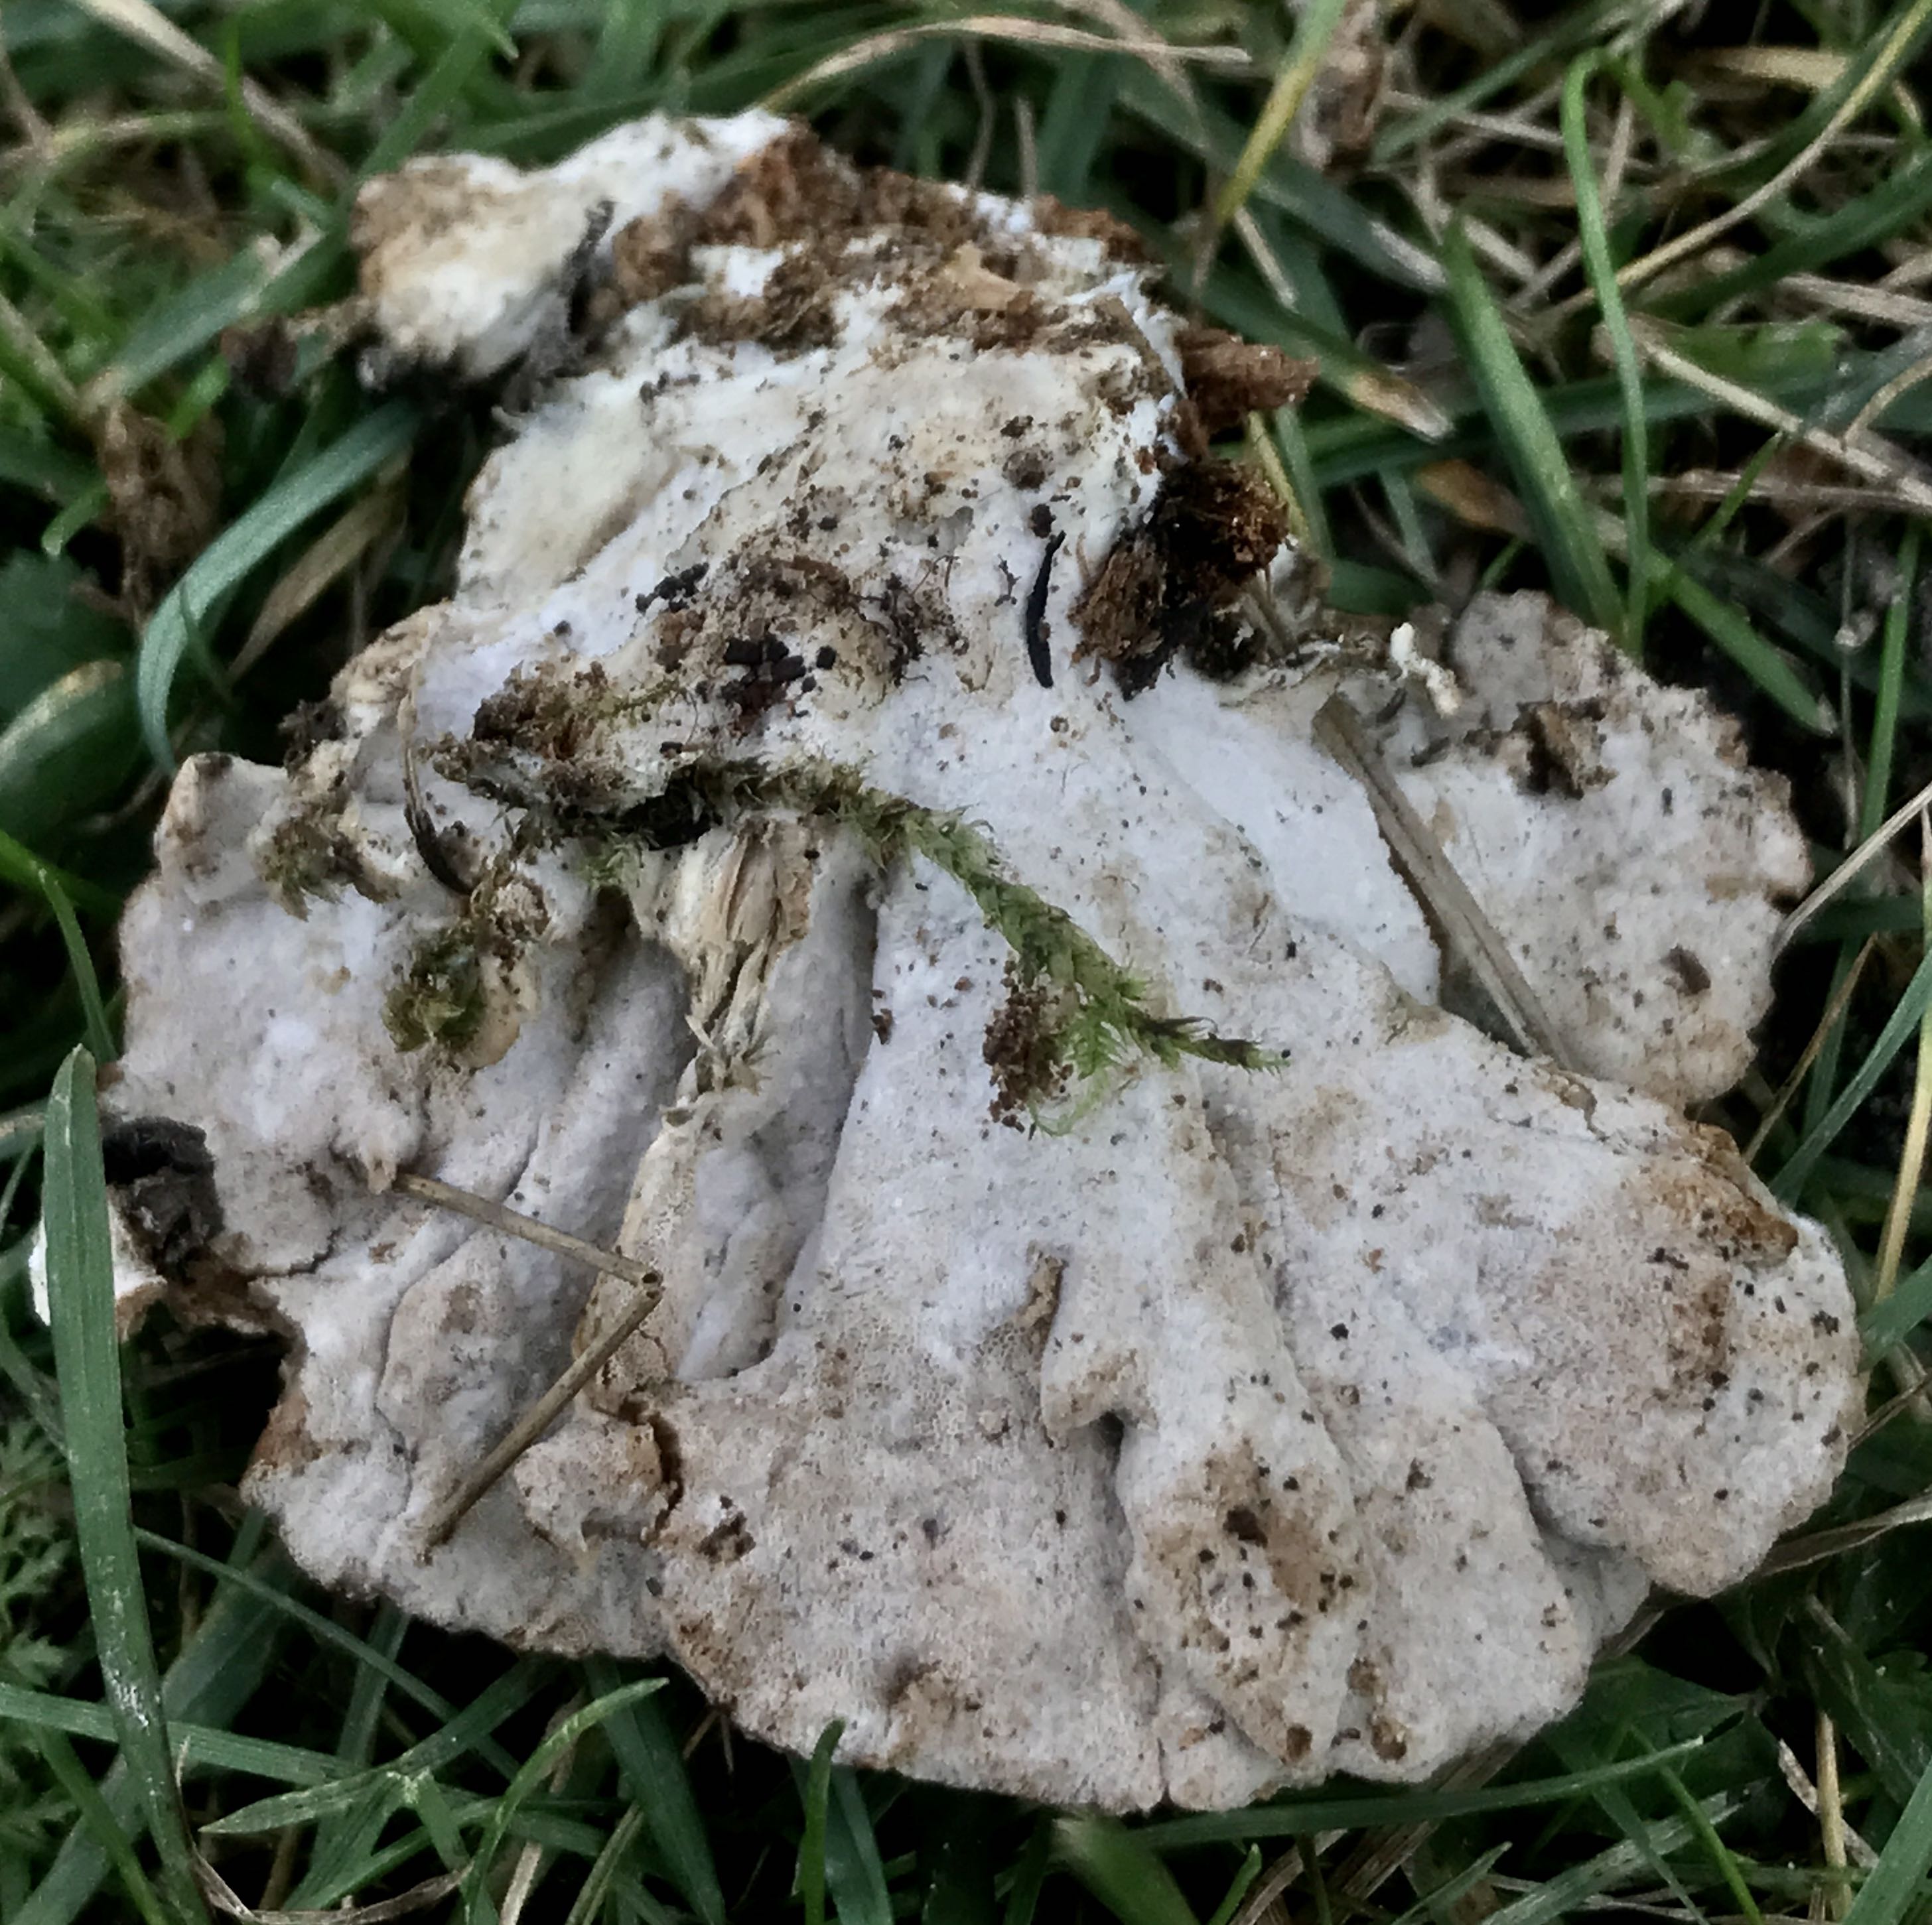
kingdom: Fungi
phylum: Basidiomycota
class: Agaricomycetes
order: Polyporales
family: Grifolaceae
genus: Grifola
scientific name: Grifola frondosa
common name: tueporesvamp
